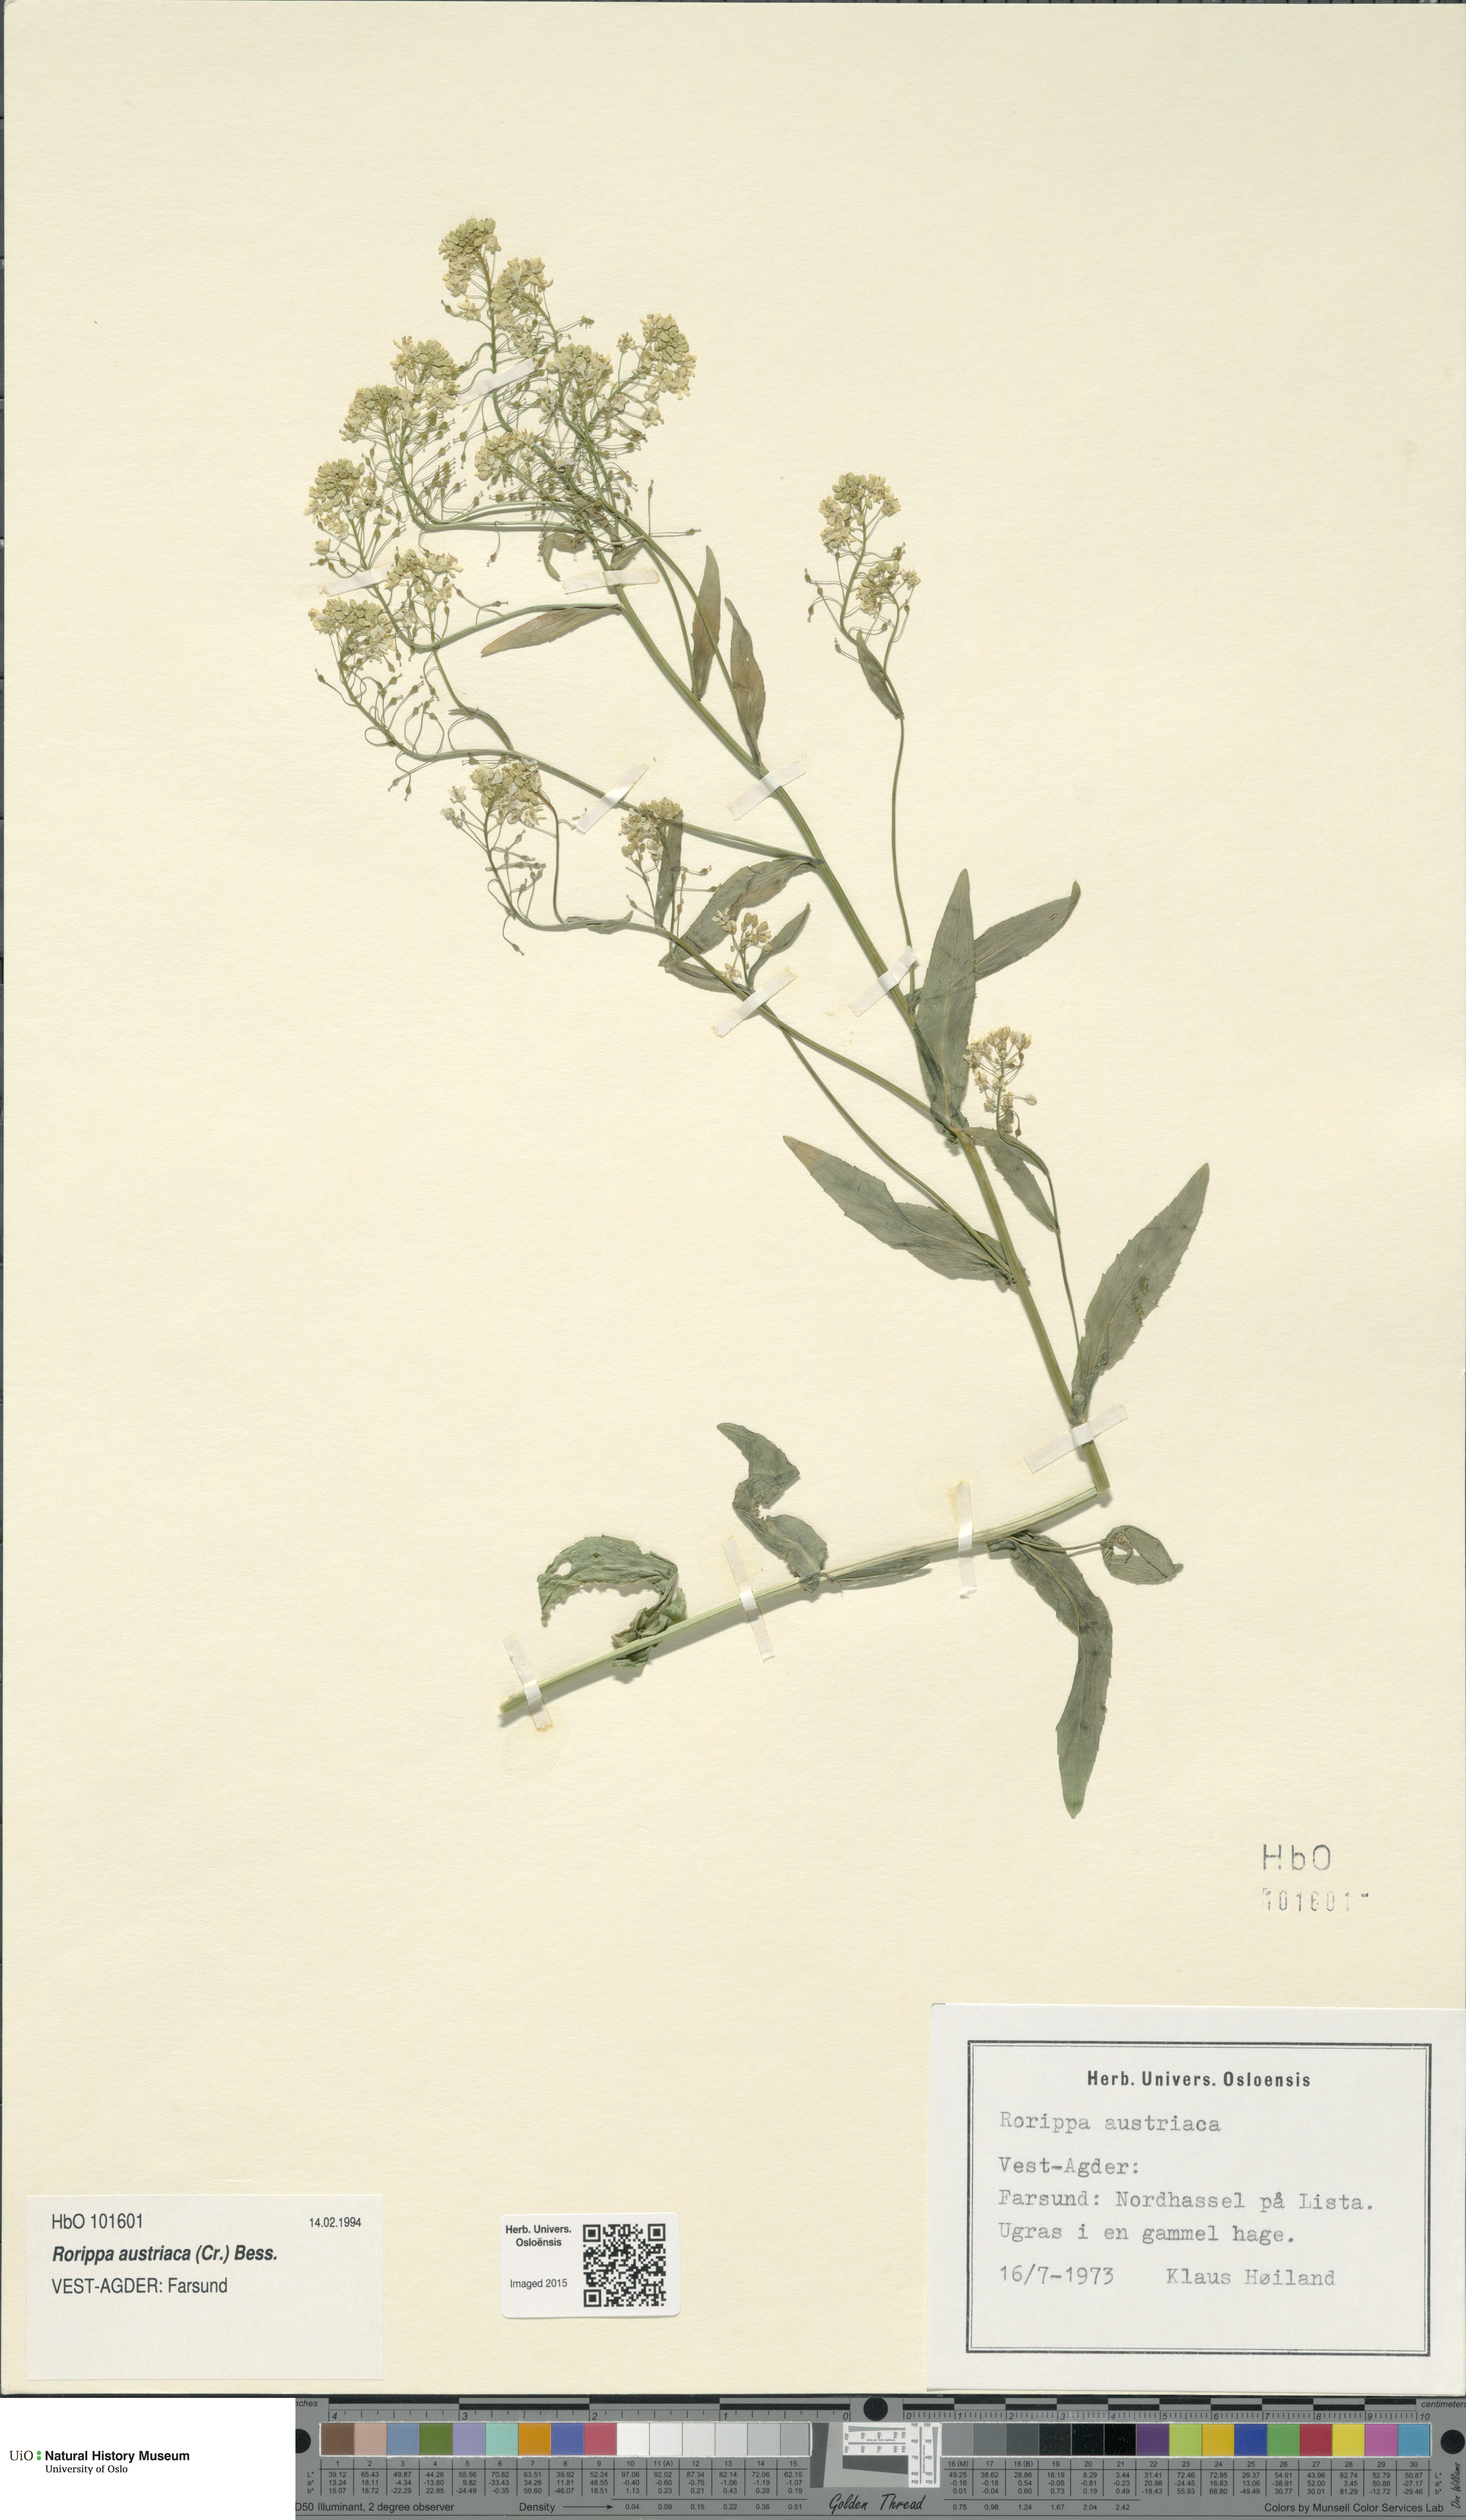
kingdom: Plantae
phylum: Tracheophyta
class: Magnoliopsida
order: Brassicales
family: Brassicaceae
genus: Rorippa
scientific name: Rorippa austriaca
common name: Austrian yellow-cress
